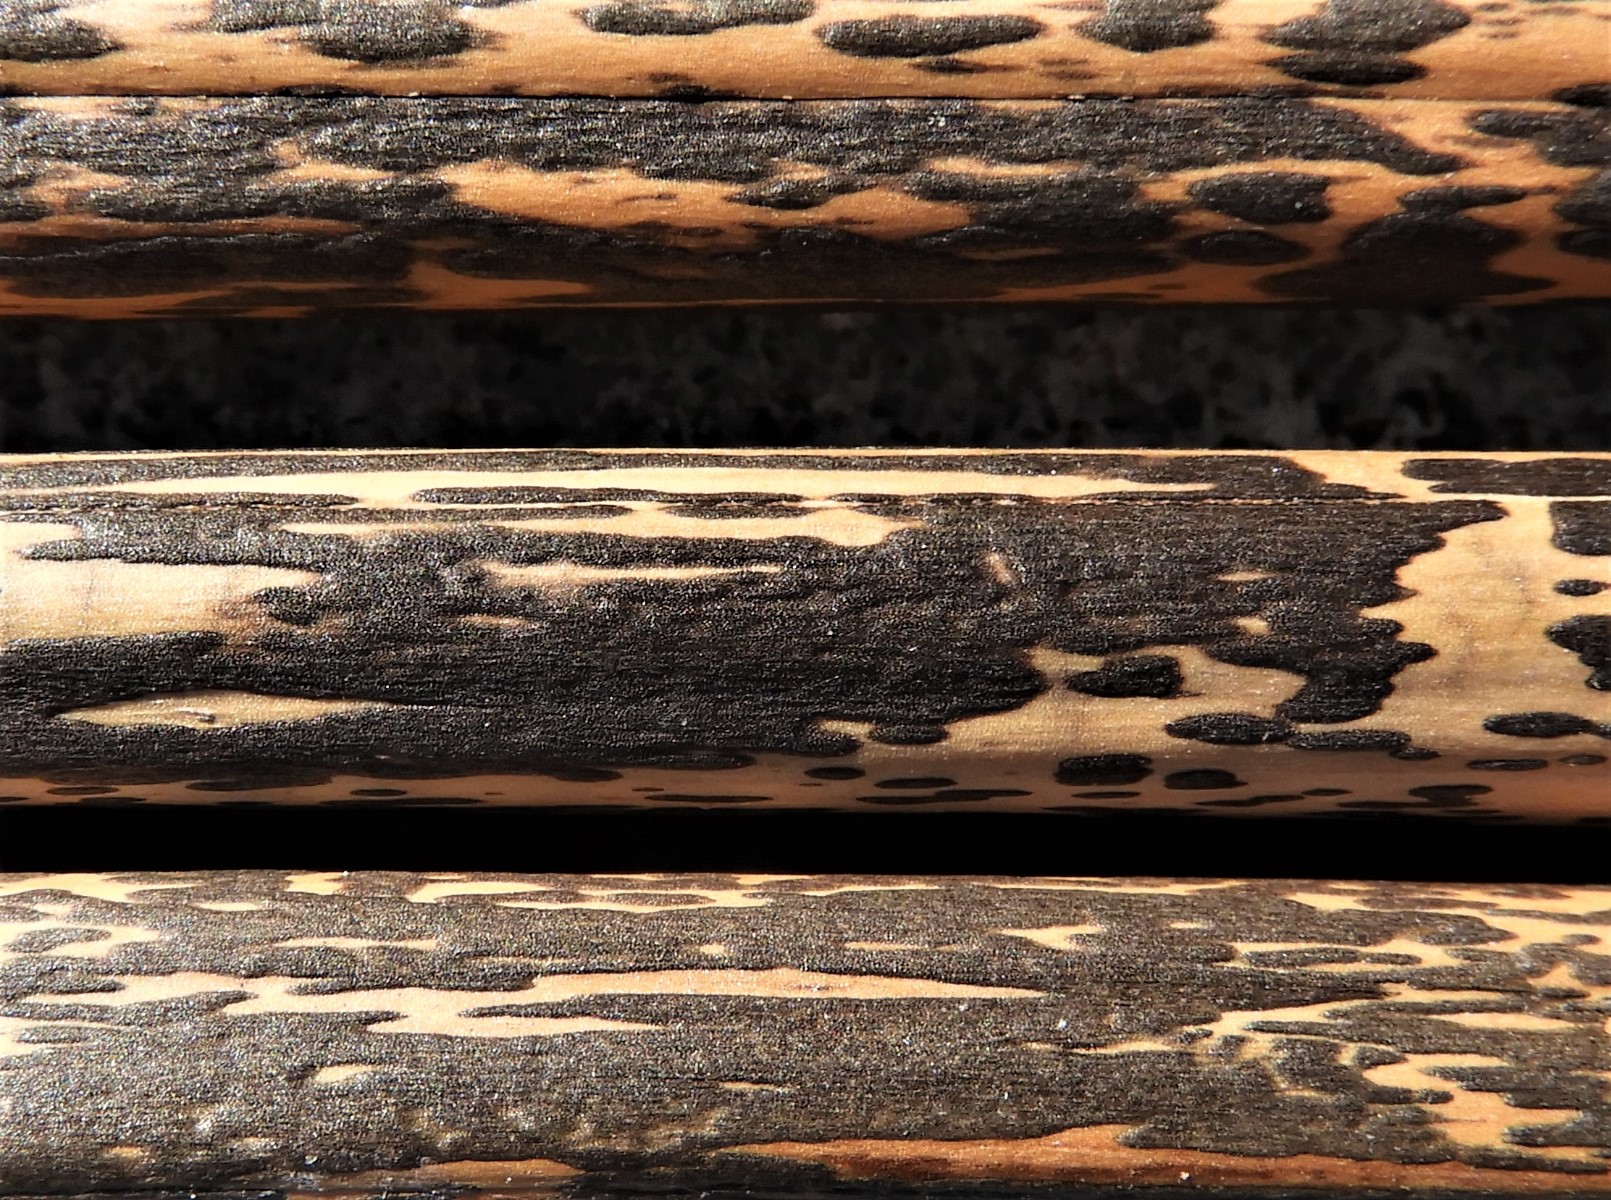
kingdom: Fungi
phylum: Ascomycota
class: Dothideomycetes
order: Pleosporales
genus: Rhopographus
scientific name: Rhopographus filicinus
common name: Bracken map
